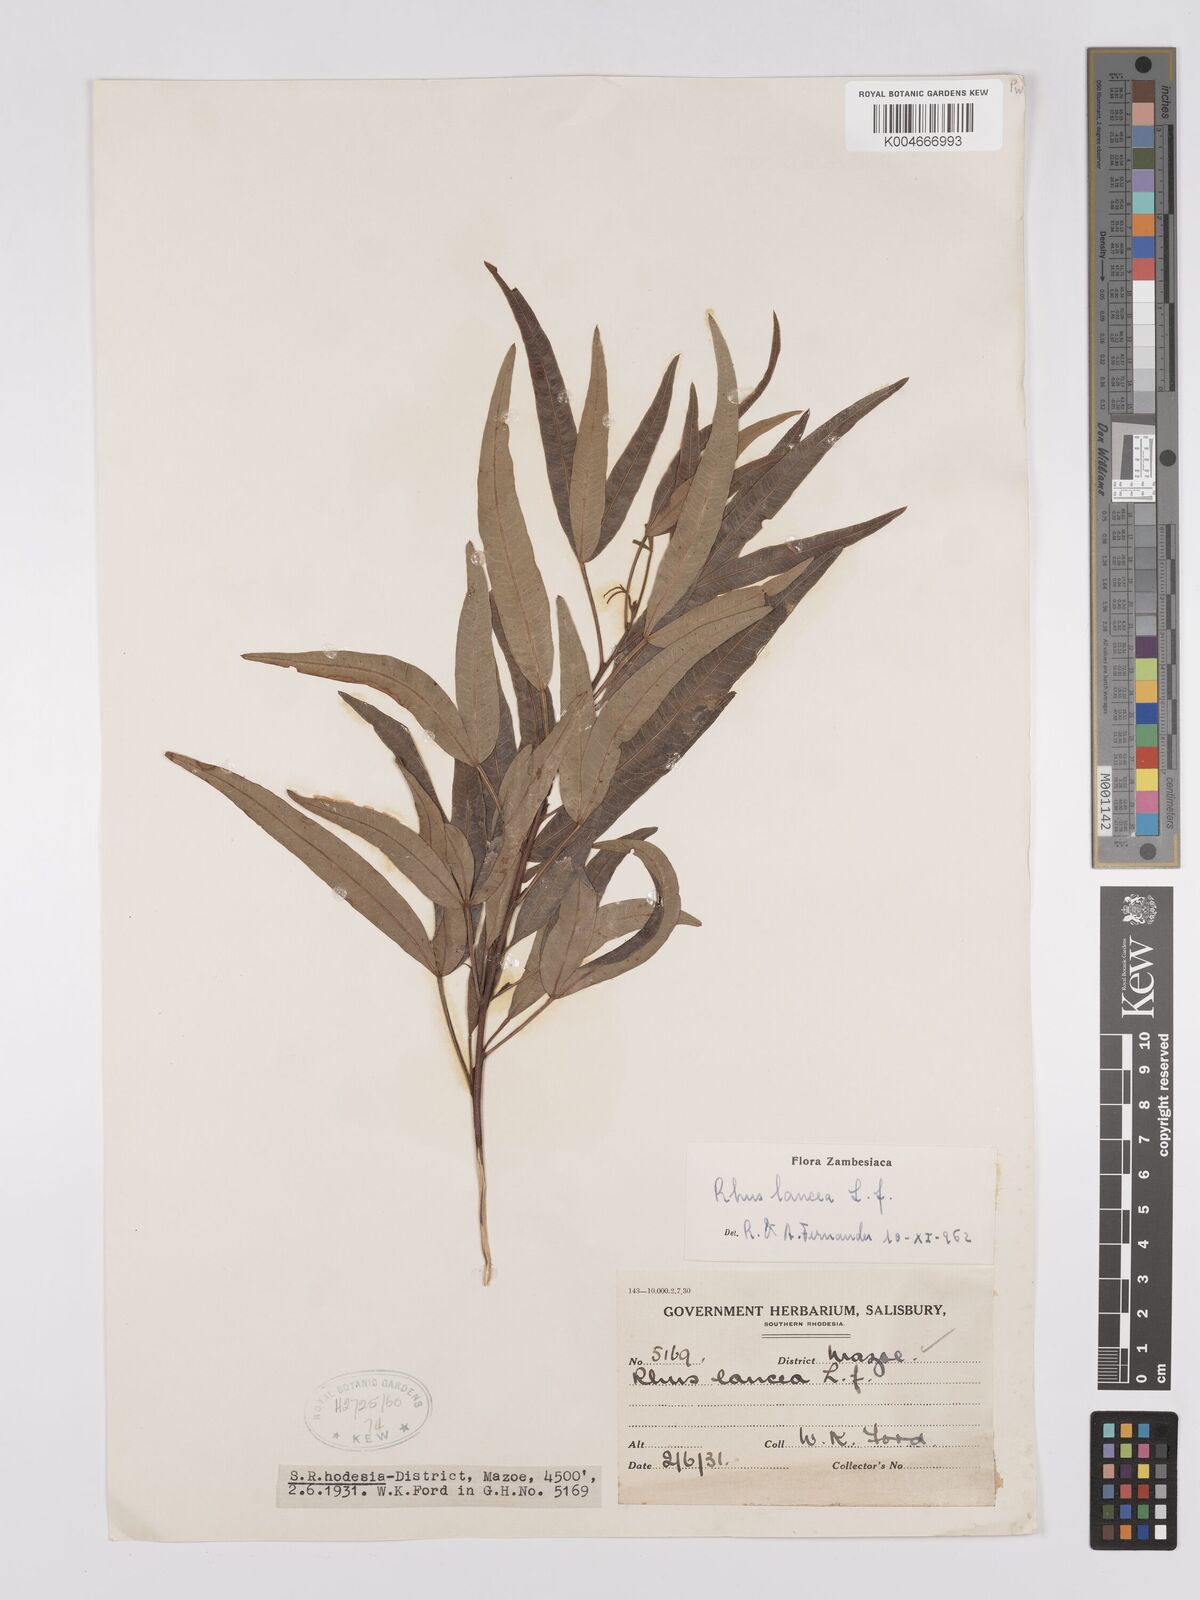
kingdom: Plantae
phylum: Tracheophyta
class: Magnoliopsida
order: Sapindales
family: Anacardiaceae
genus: Searsia
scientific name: Searsia lancea
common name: Cashew
